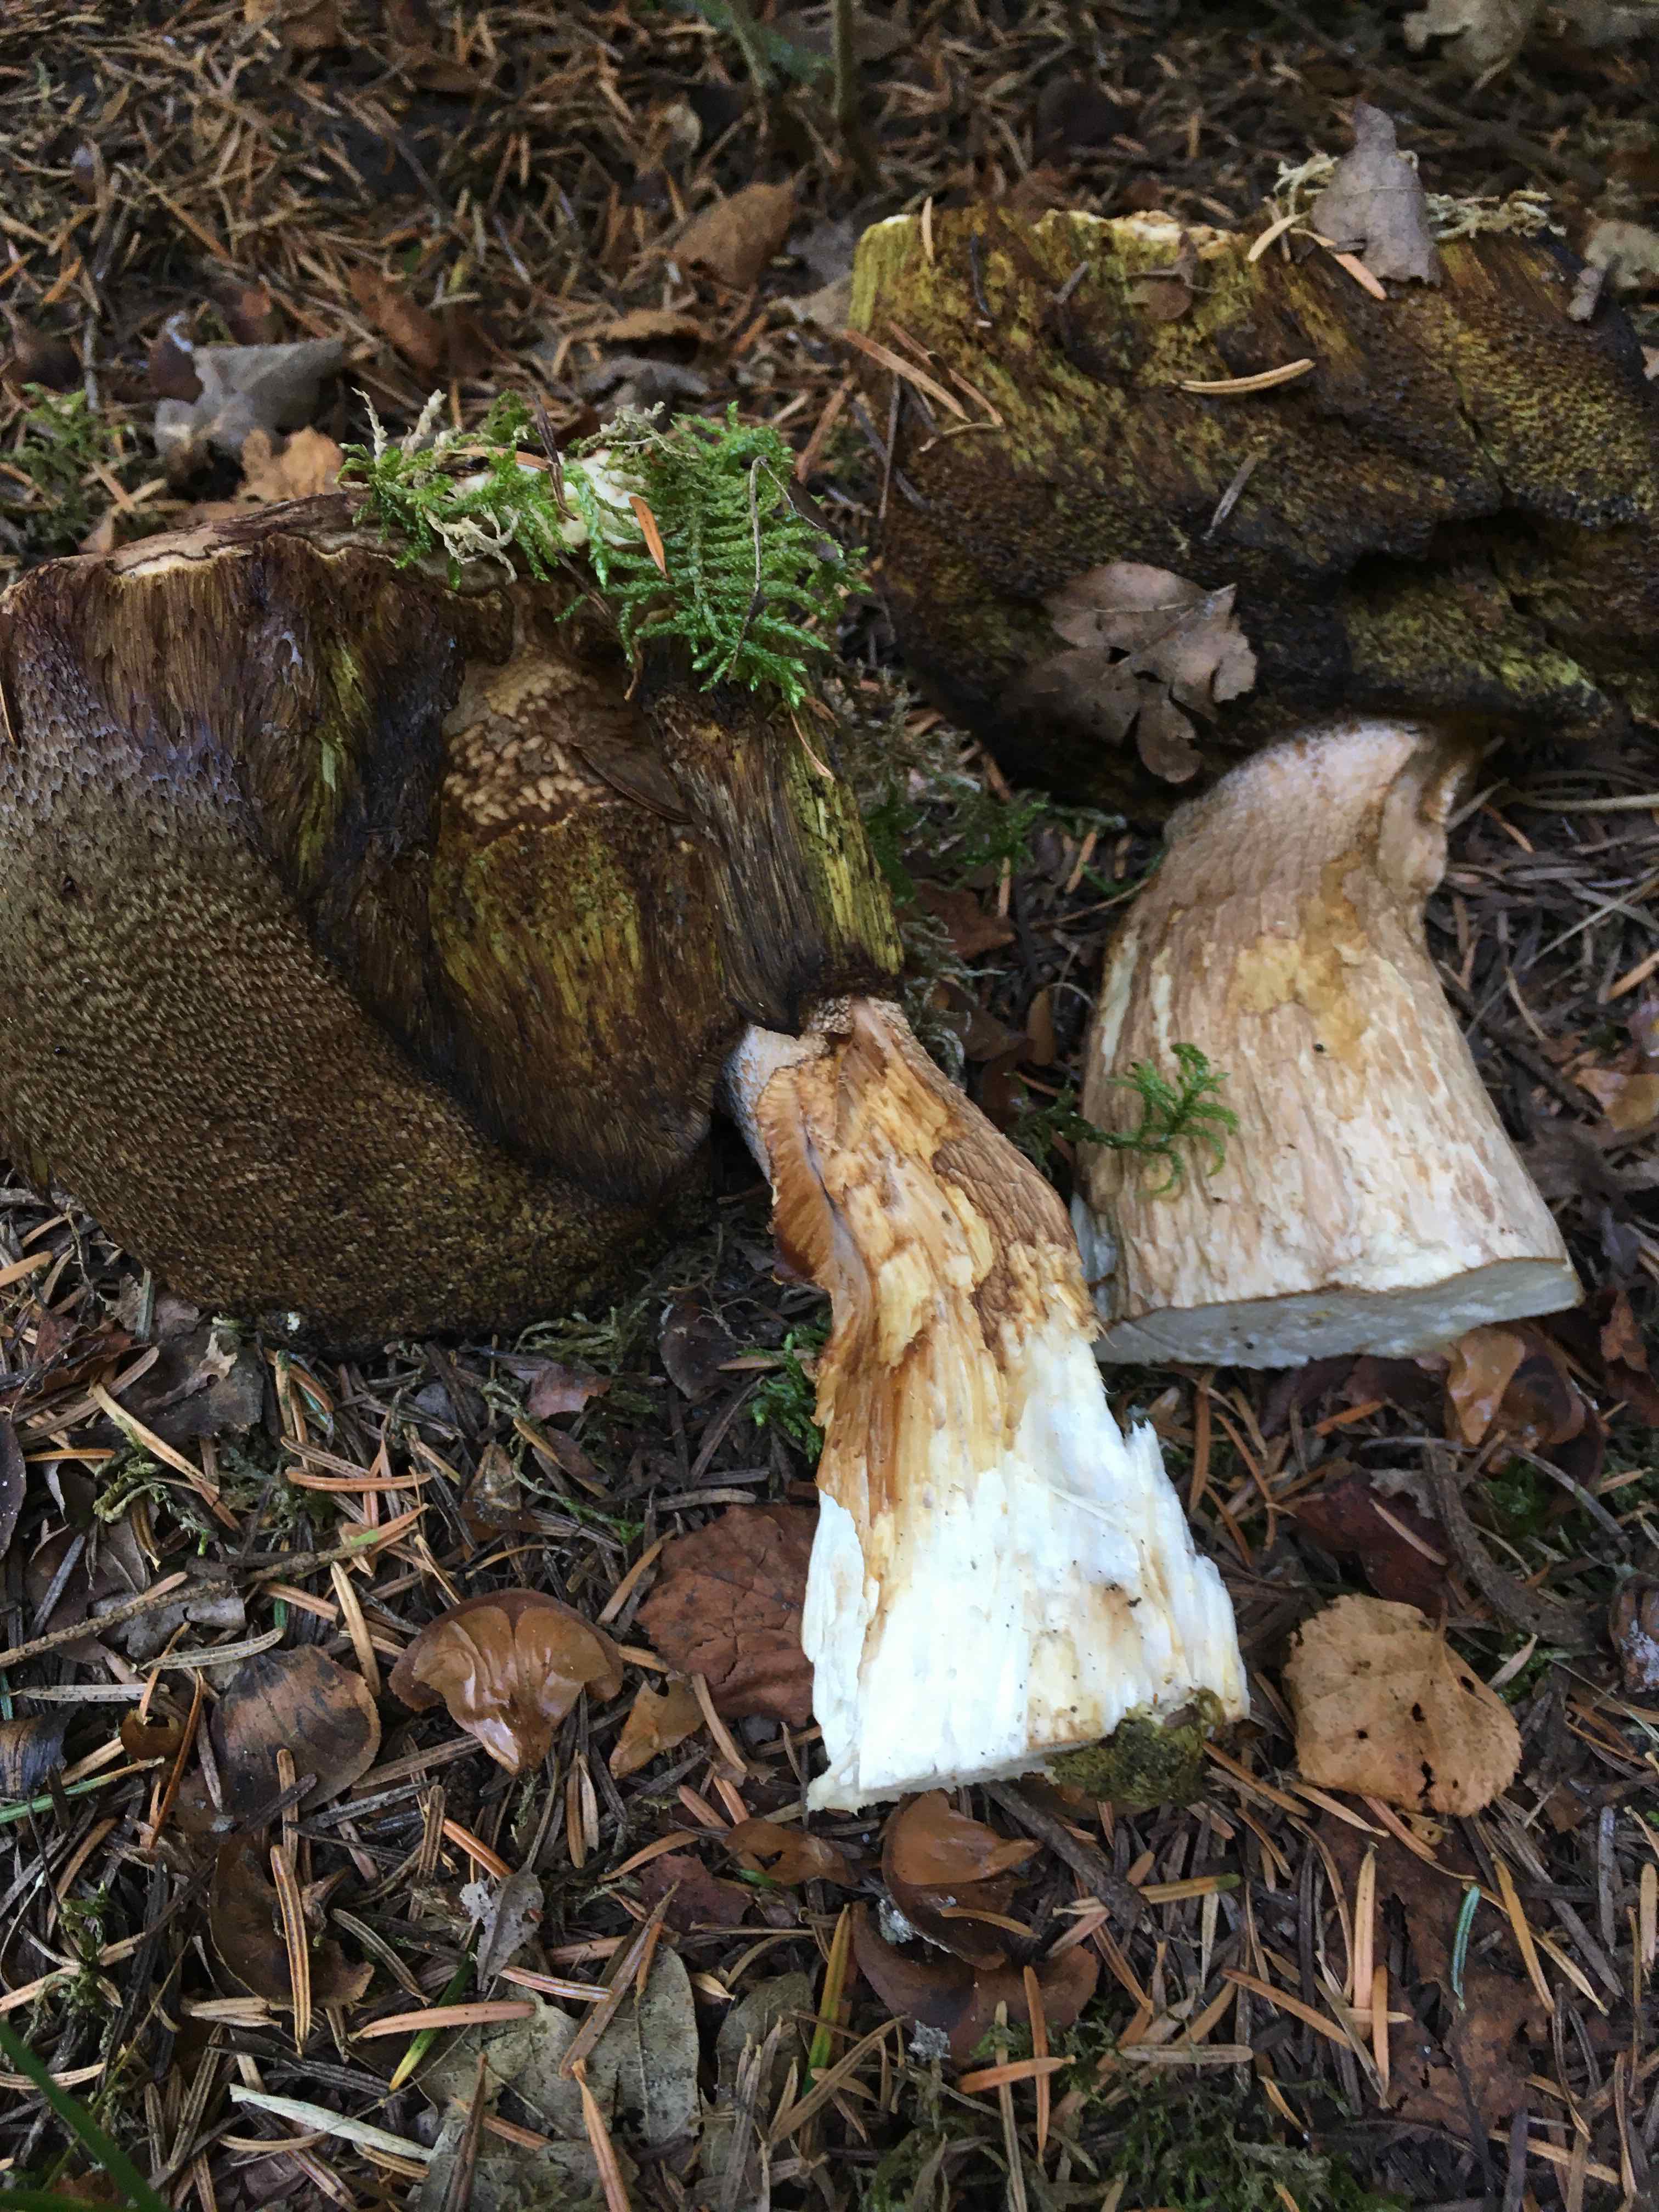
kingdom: Fungi
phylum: Basidiomycota
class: Agaricomycetes
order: Boletales
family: Boletaceae
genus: Boletus
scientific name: Boletus edulis
